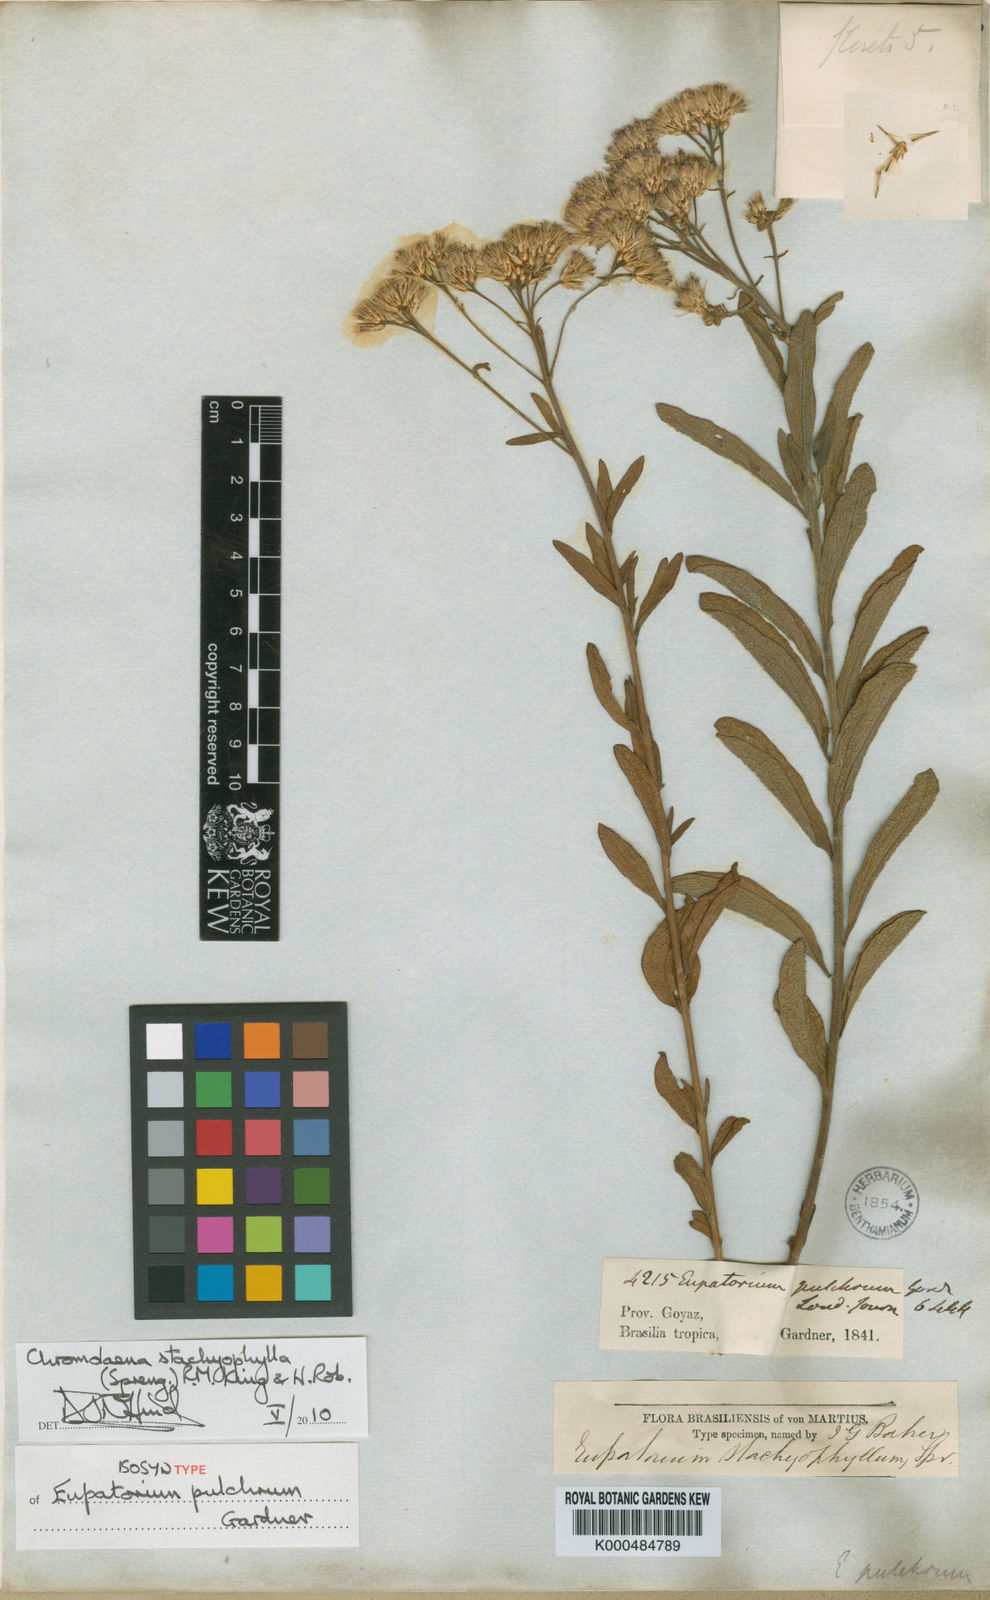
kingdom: Plantae
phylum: Tracheophyta
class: Magnoliopsida
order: Asterales
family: Asteraceae
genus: Chromolaena
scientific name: Chromolaena stachyophylla
